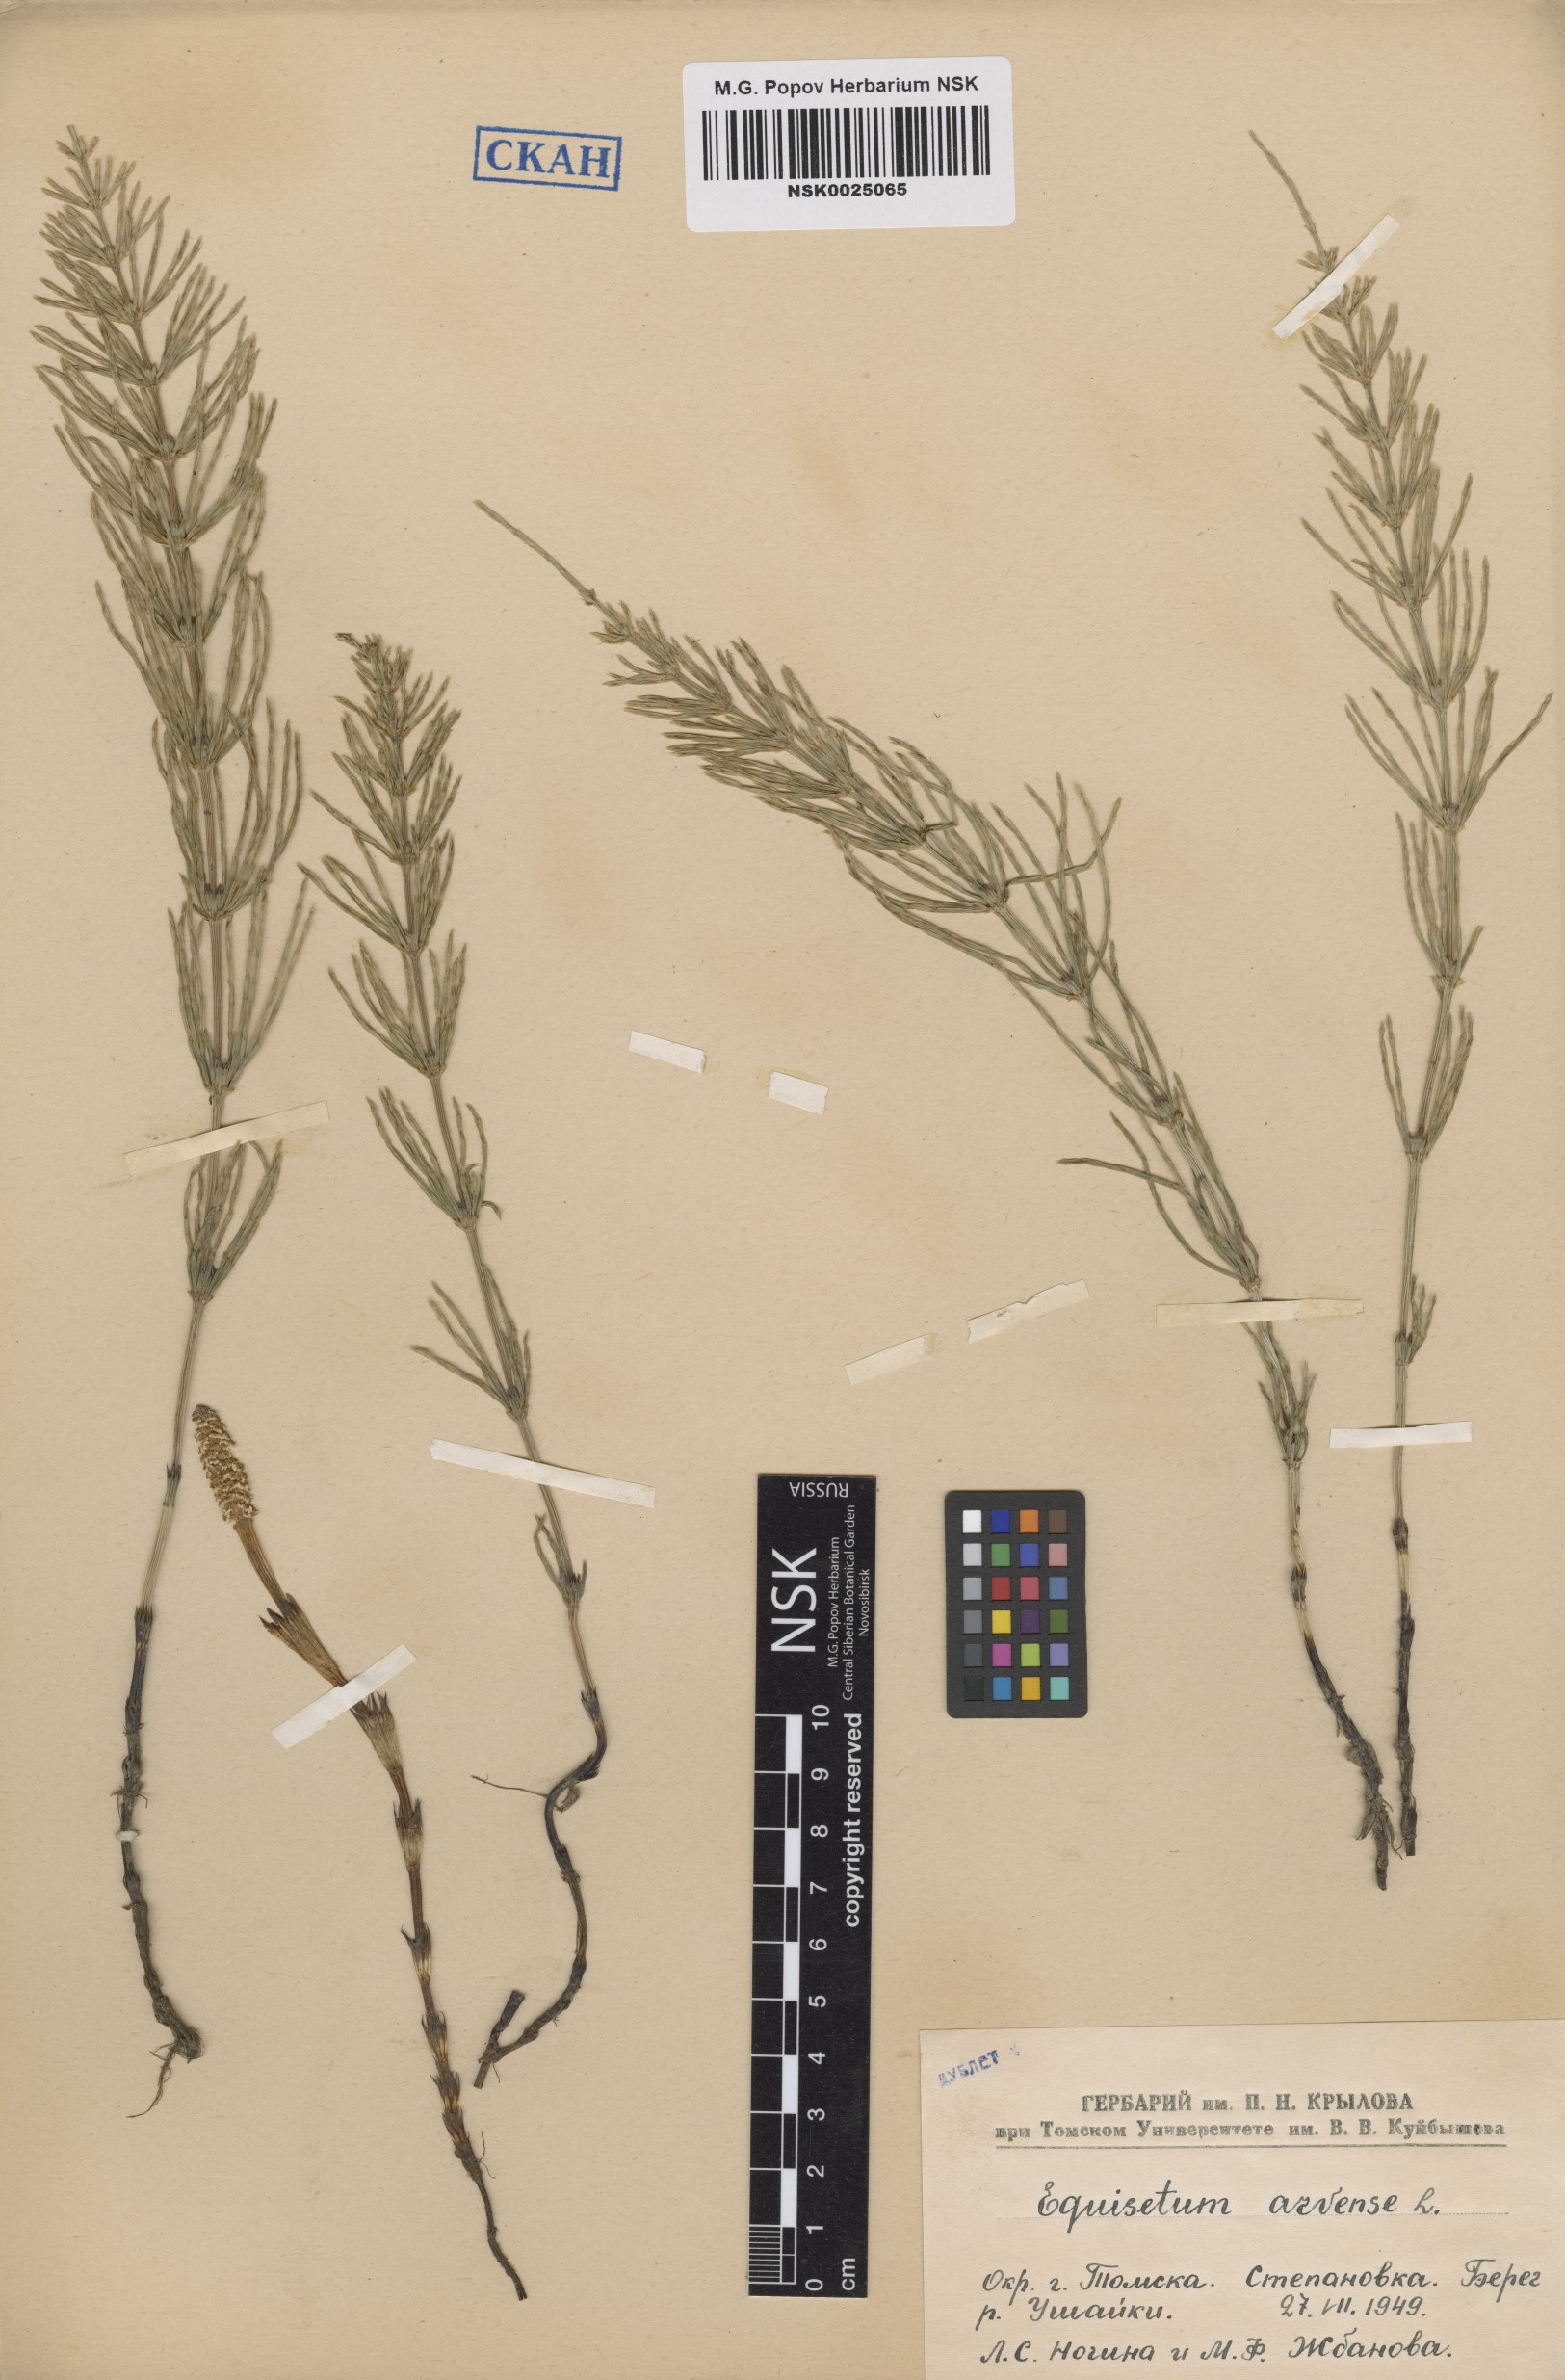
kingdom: Plantae
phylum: Tracheophyta
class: Polypodiopsida
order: Equisetales
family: Equisetaceae
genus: Equisetum
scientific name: Equisetum arvense
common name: Field horsetail
